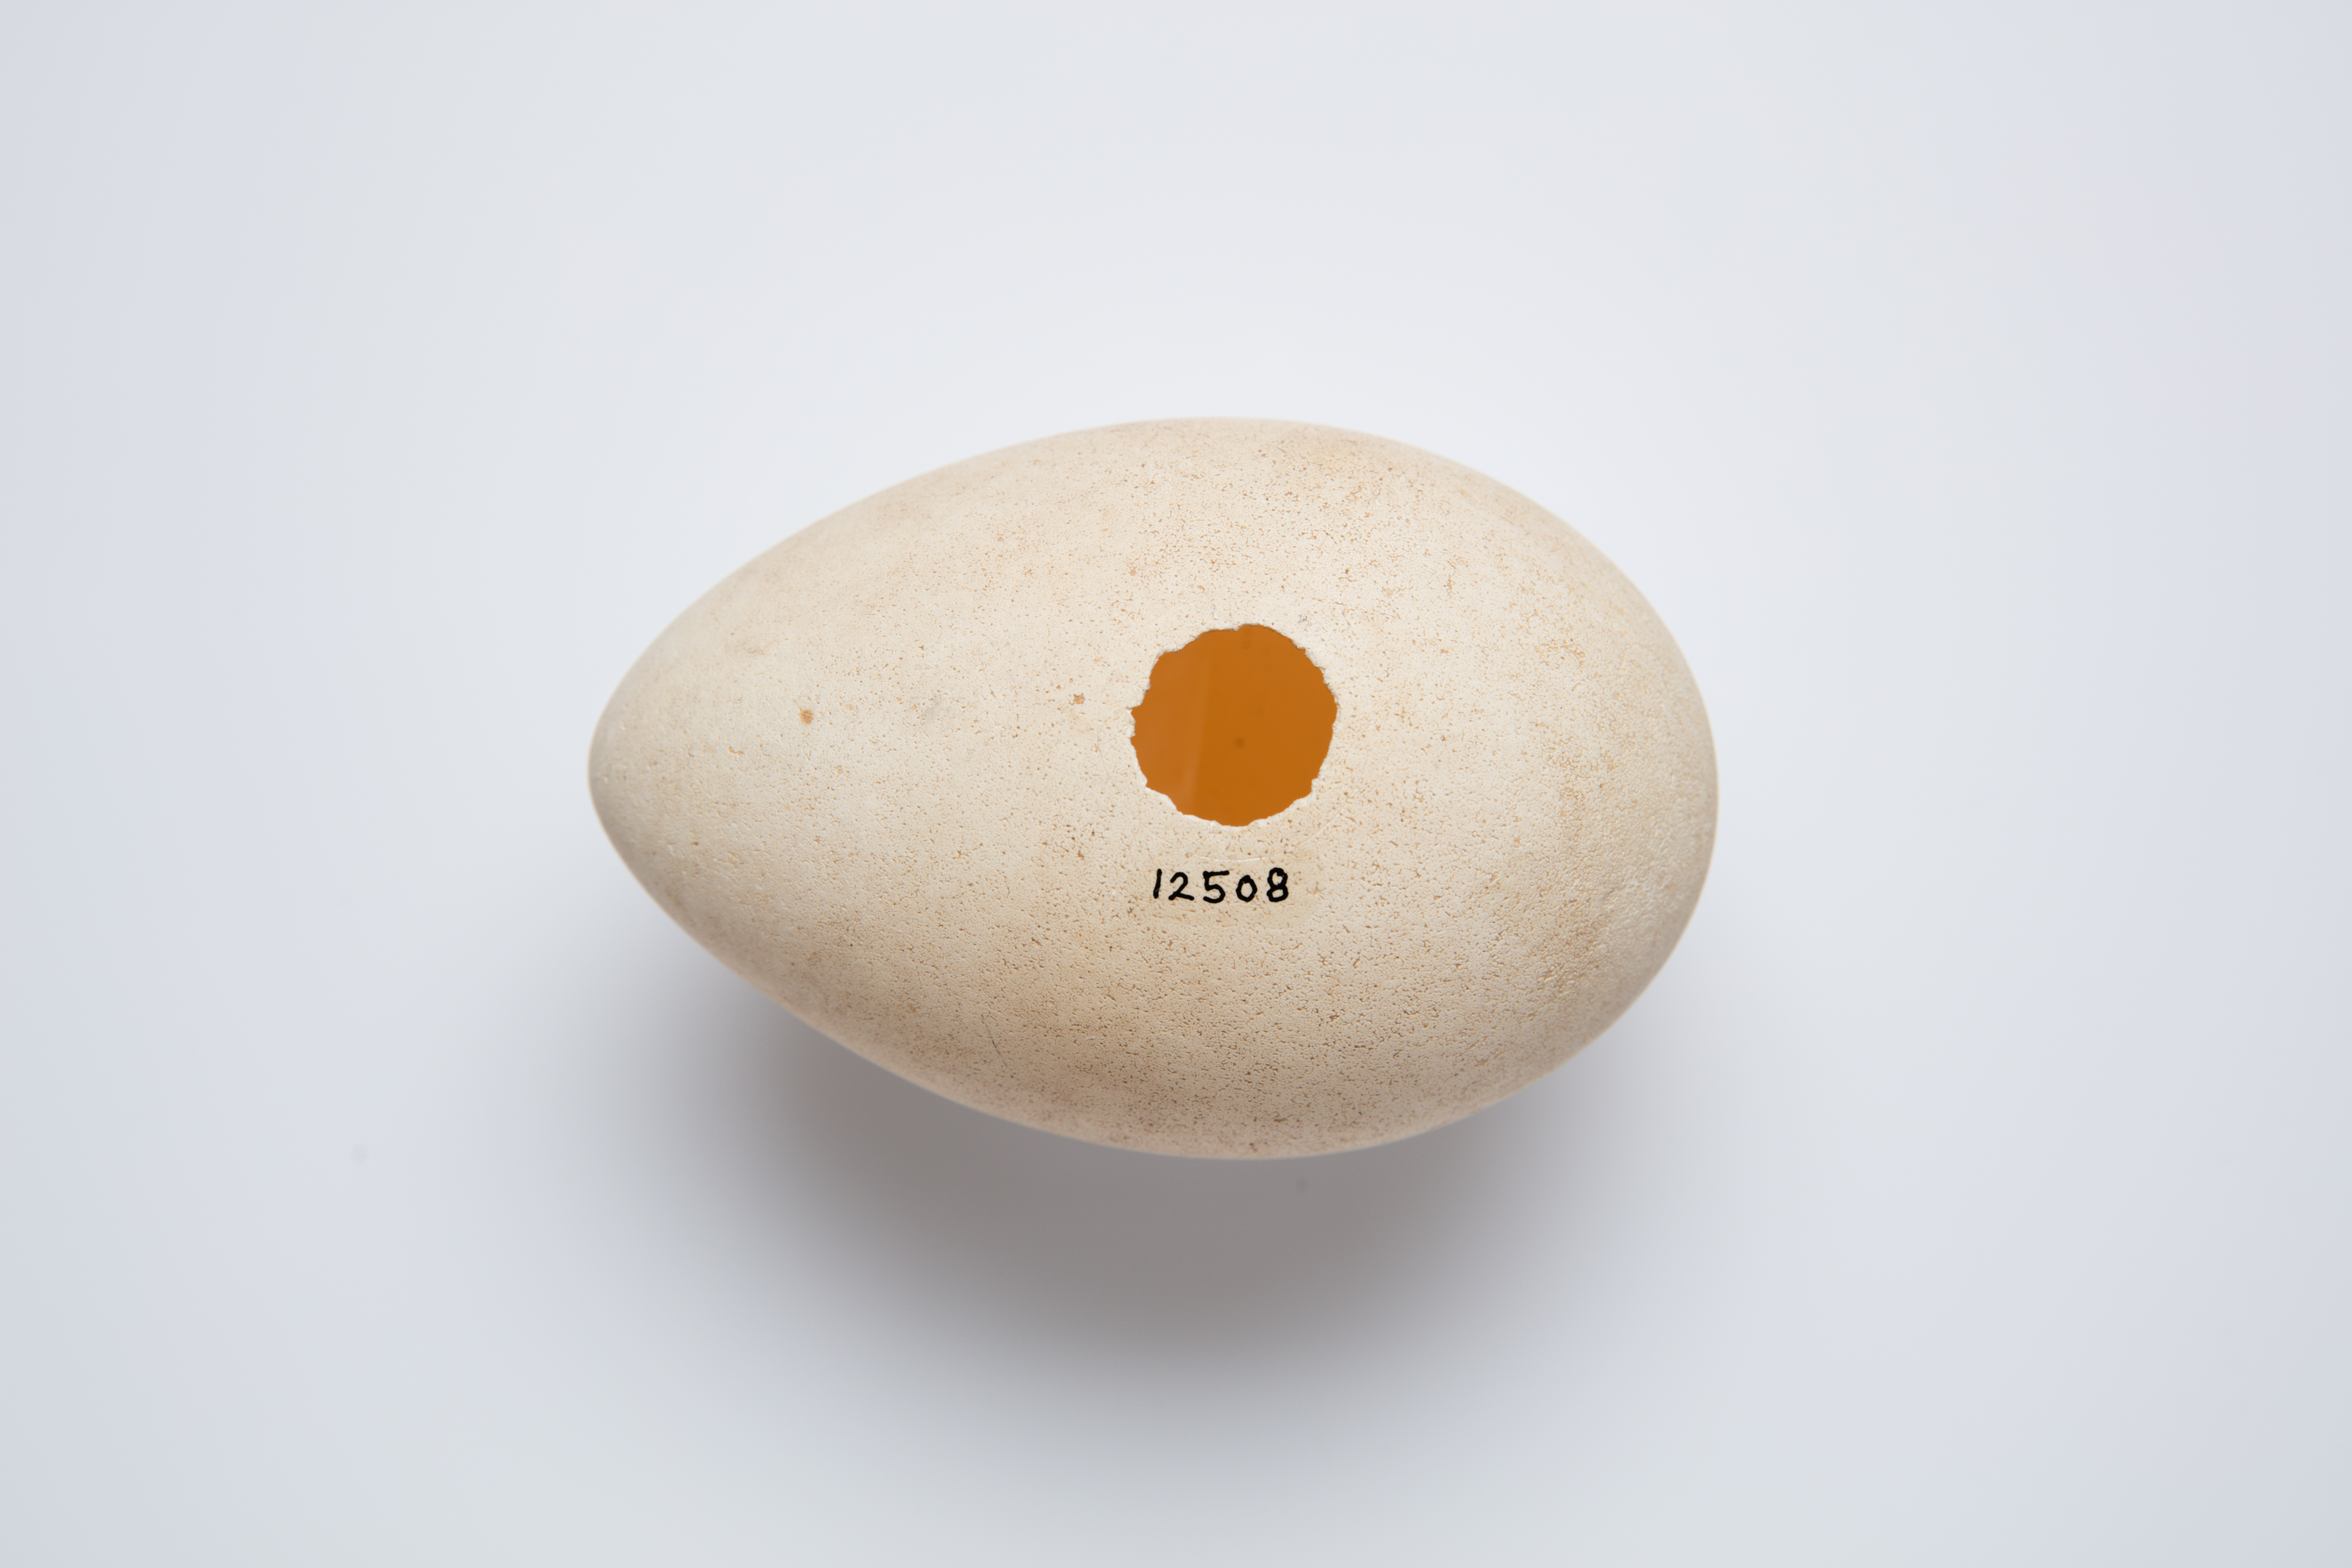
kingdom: Animalia
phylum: Chordata
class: Aves
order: Procellariiformes
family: Diomedeidae
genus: Thalassarche
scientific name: Thalassarche cauta
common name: Shy albatross
